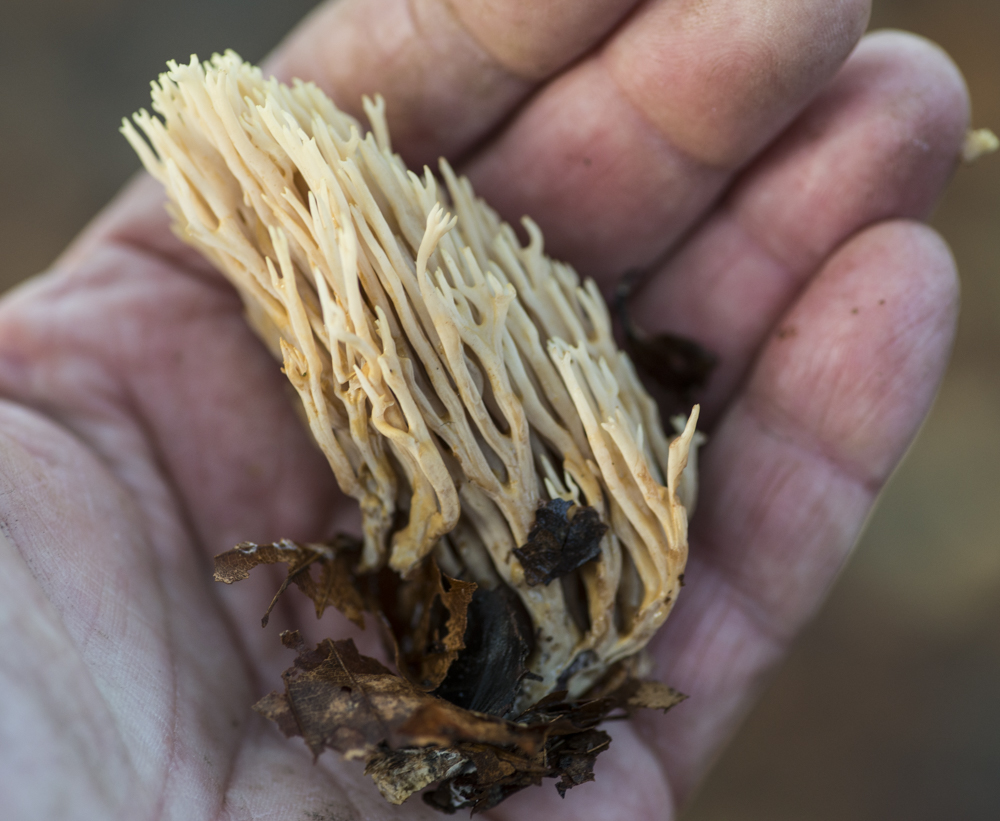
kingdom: Fungi
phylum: Basidiomycota
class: Agaricomycetes
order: Gomphales
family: Gomphaceae
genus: Ramaria
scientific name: Ramaria stricta
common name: rank koralsvamp
